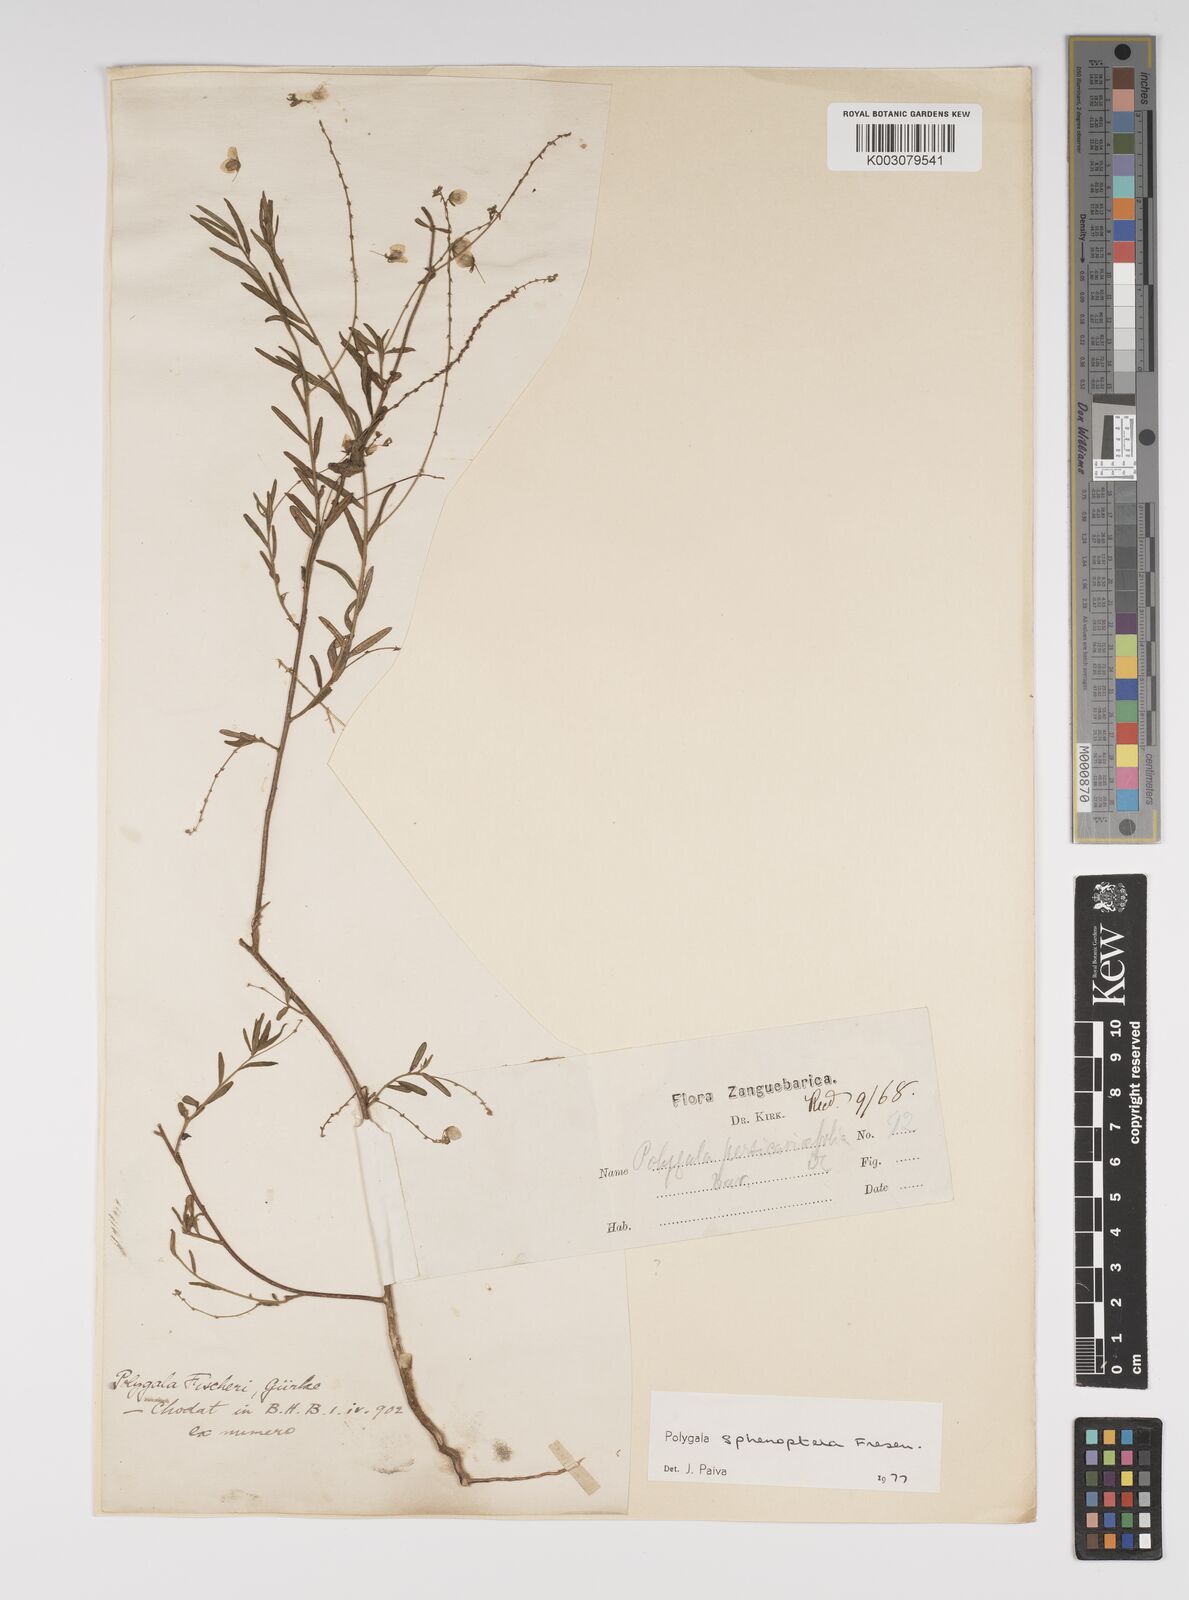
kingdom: Plantae
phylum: Tracheophyta
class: Magnoliopsida
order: Fabales
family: Polygalaceae
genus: Polygala
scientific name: Polygala sphenoptera
